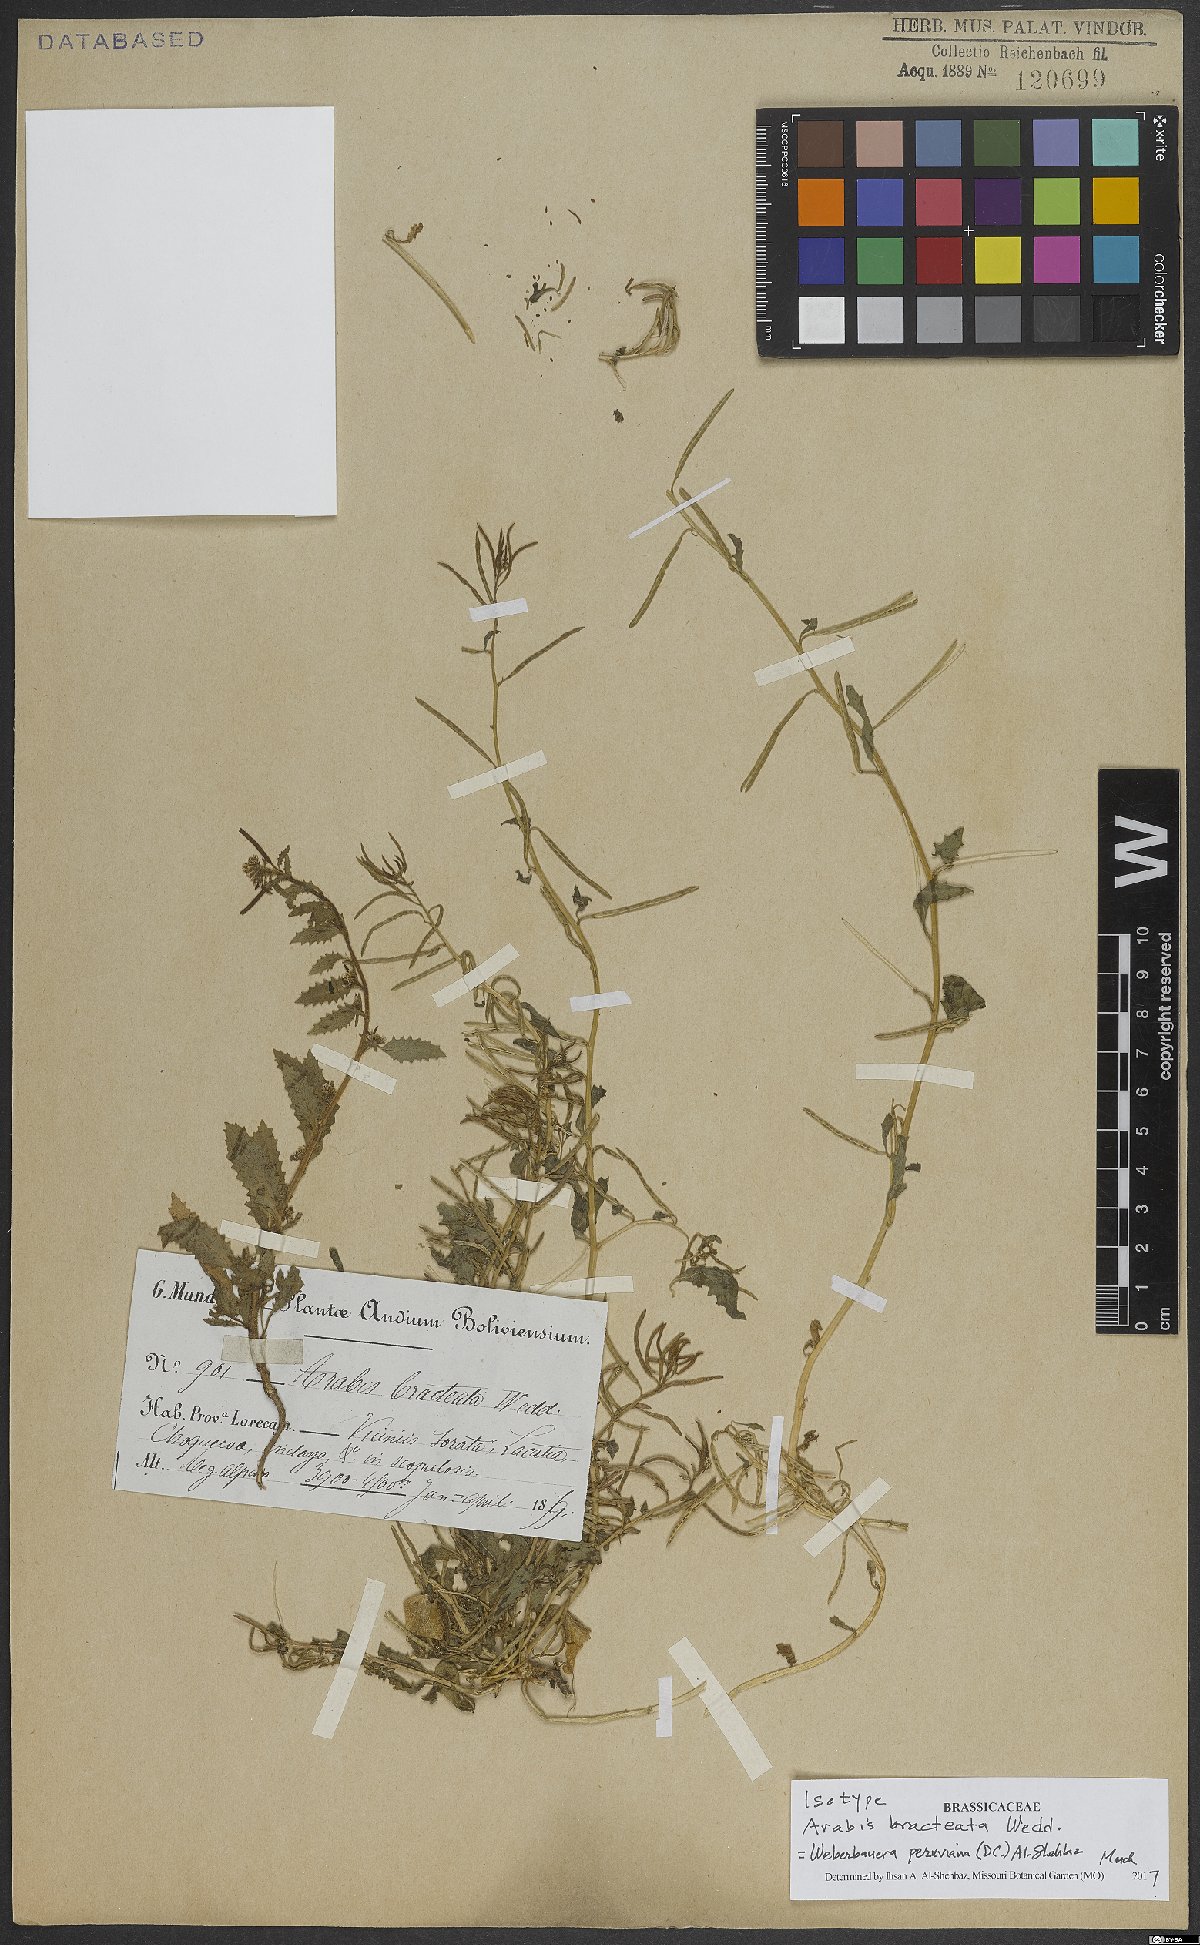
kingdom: Plantae
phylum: Tracheophyta
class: Magnoliopsida
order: Brassicales
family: Brassicaceae
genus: Weberbauera
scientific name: Weberbauera peruviana
